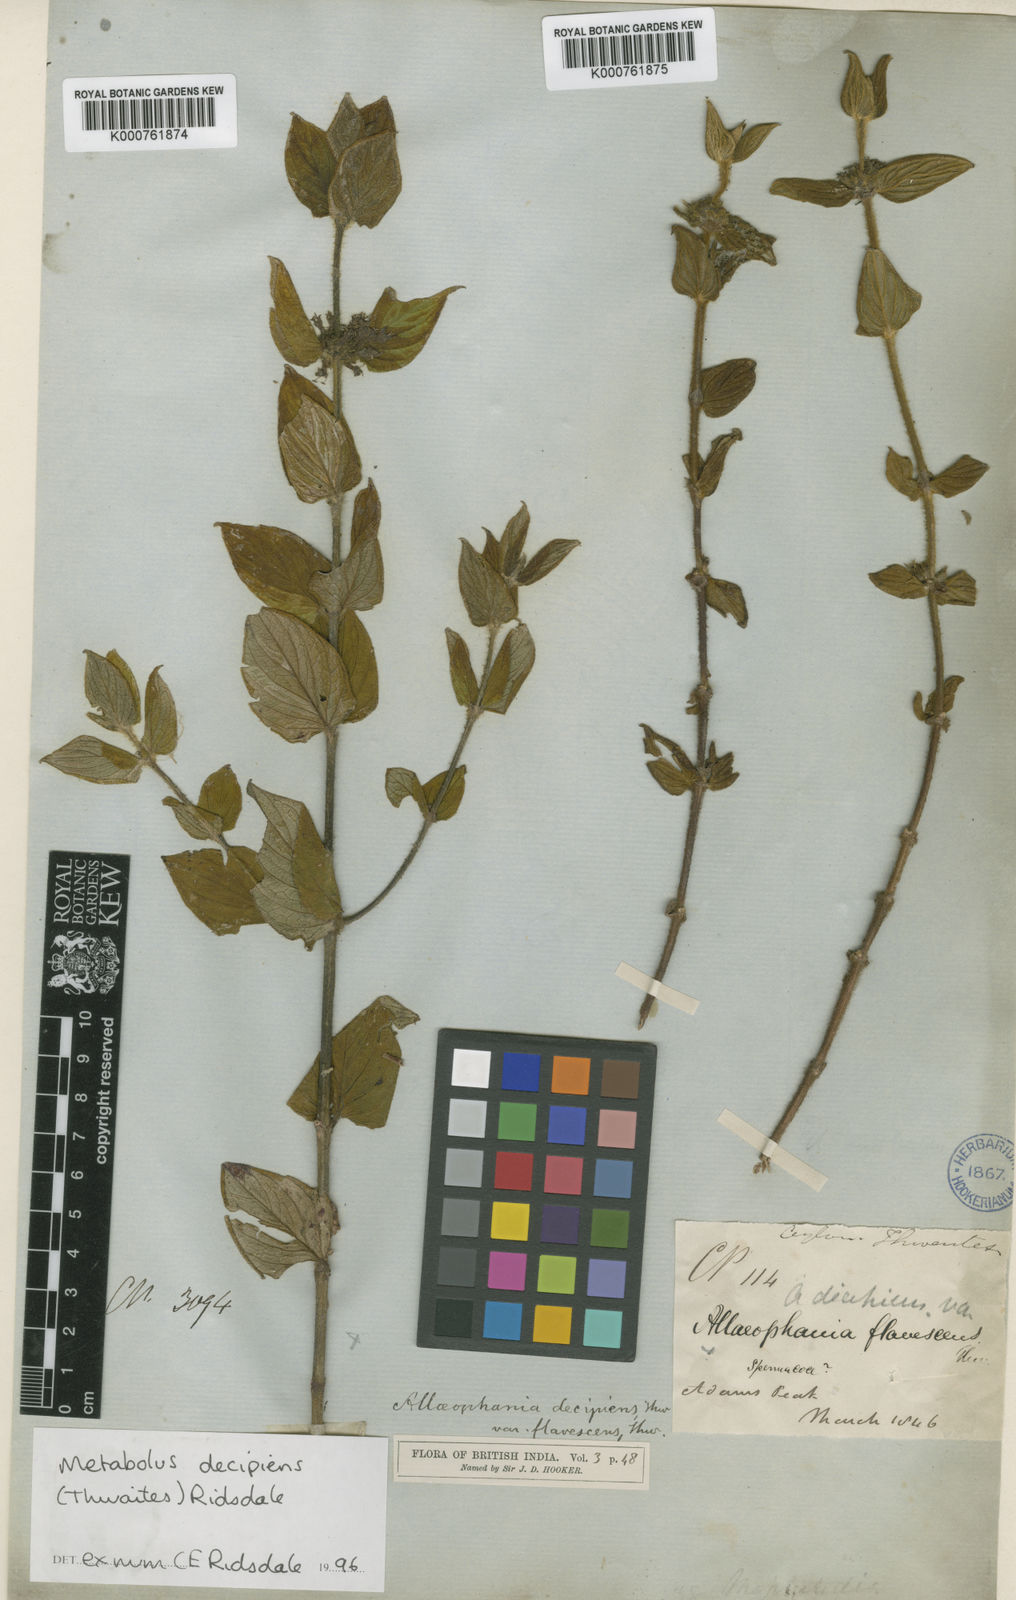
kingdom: Plantae
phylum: Tracheophyta
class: Magnoliopsida
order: Gentianales
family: Rubiaceae
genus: Hedyotis
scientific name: Hedyotis
